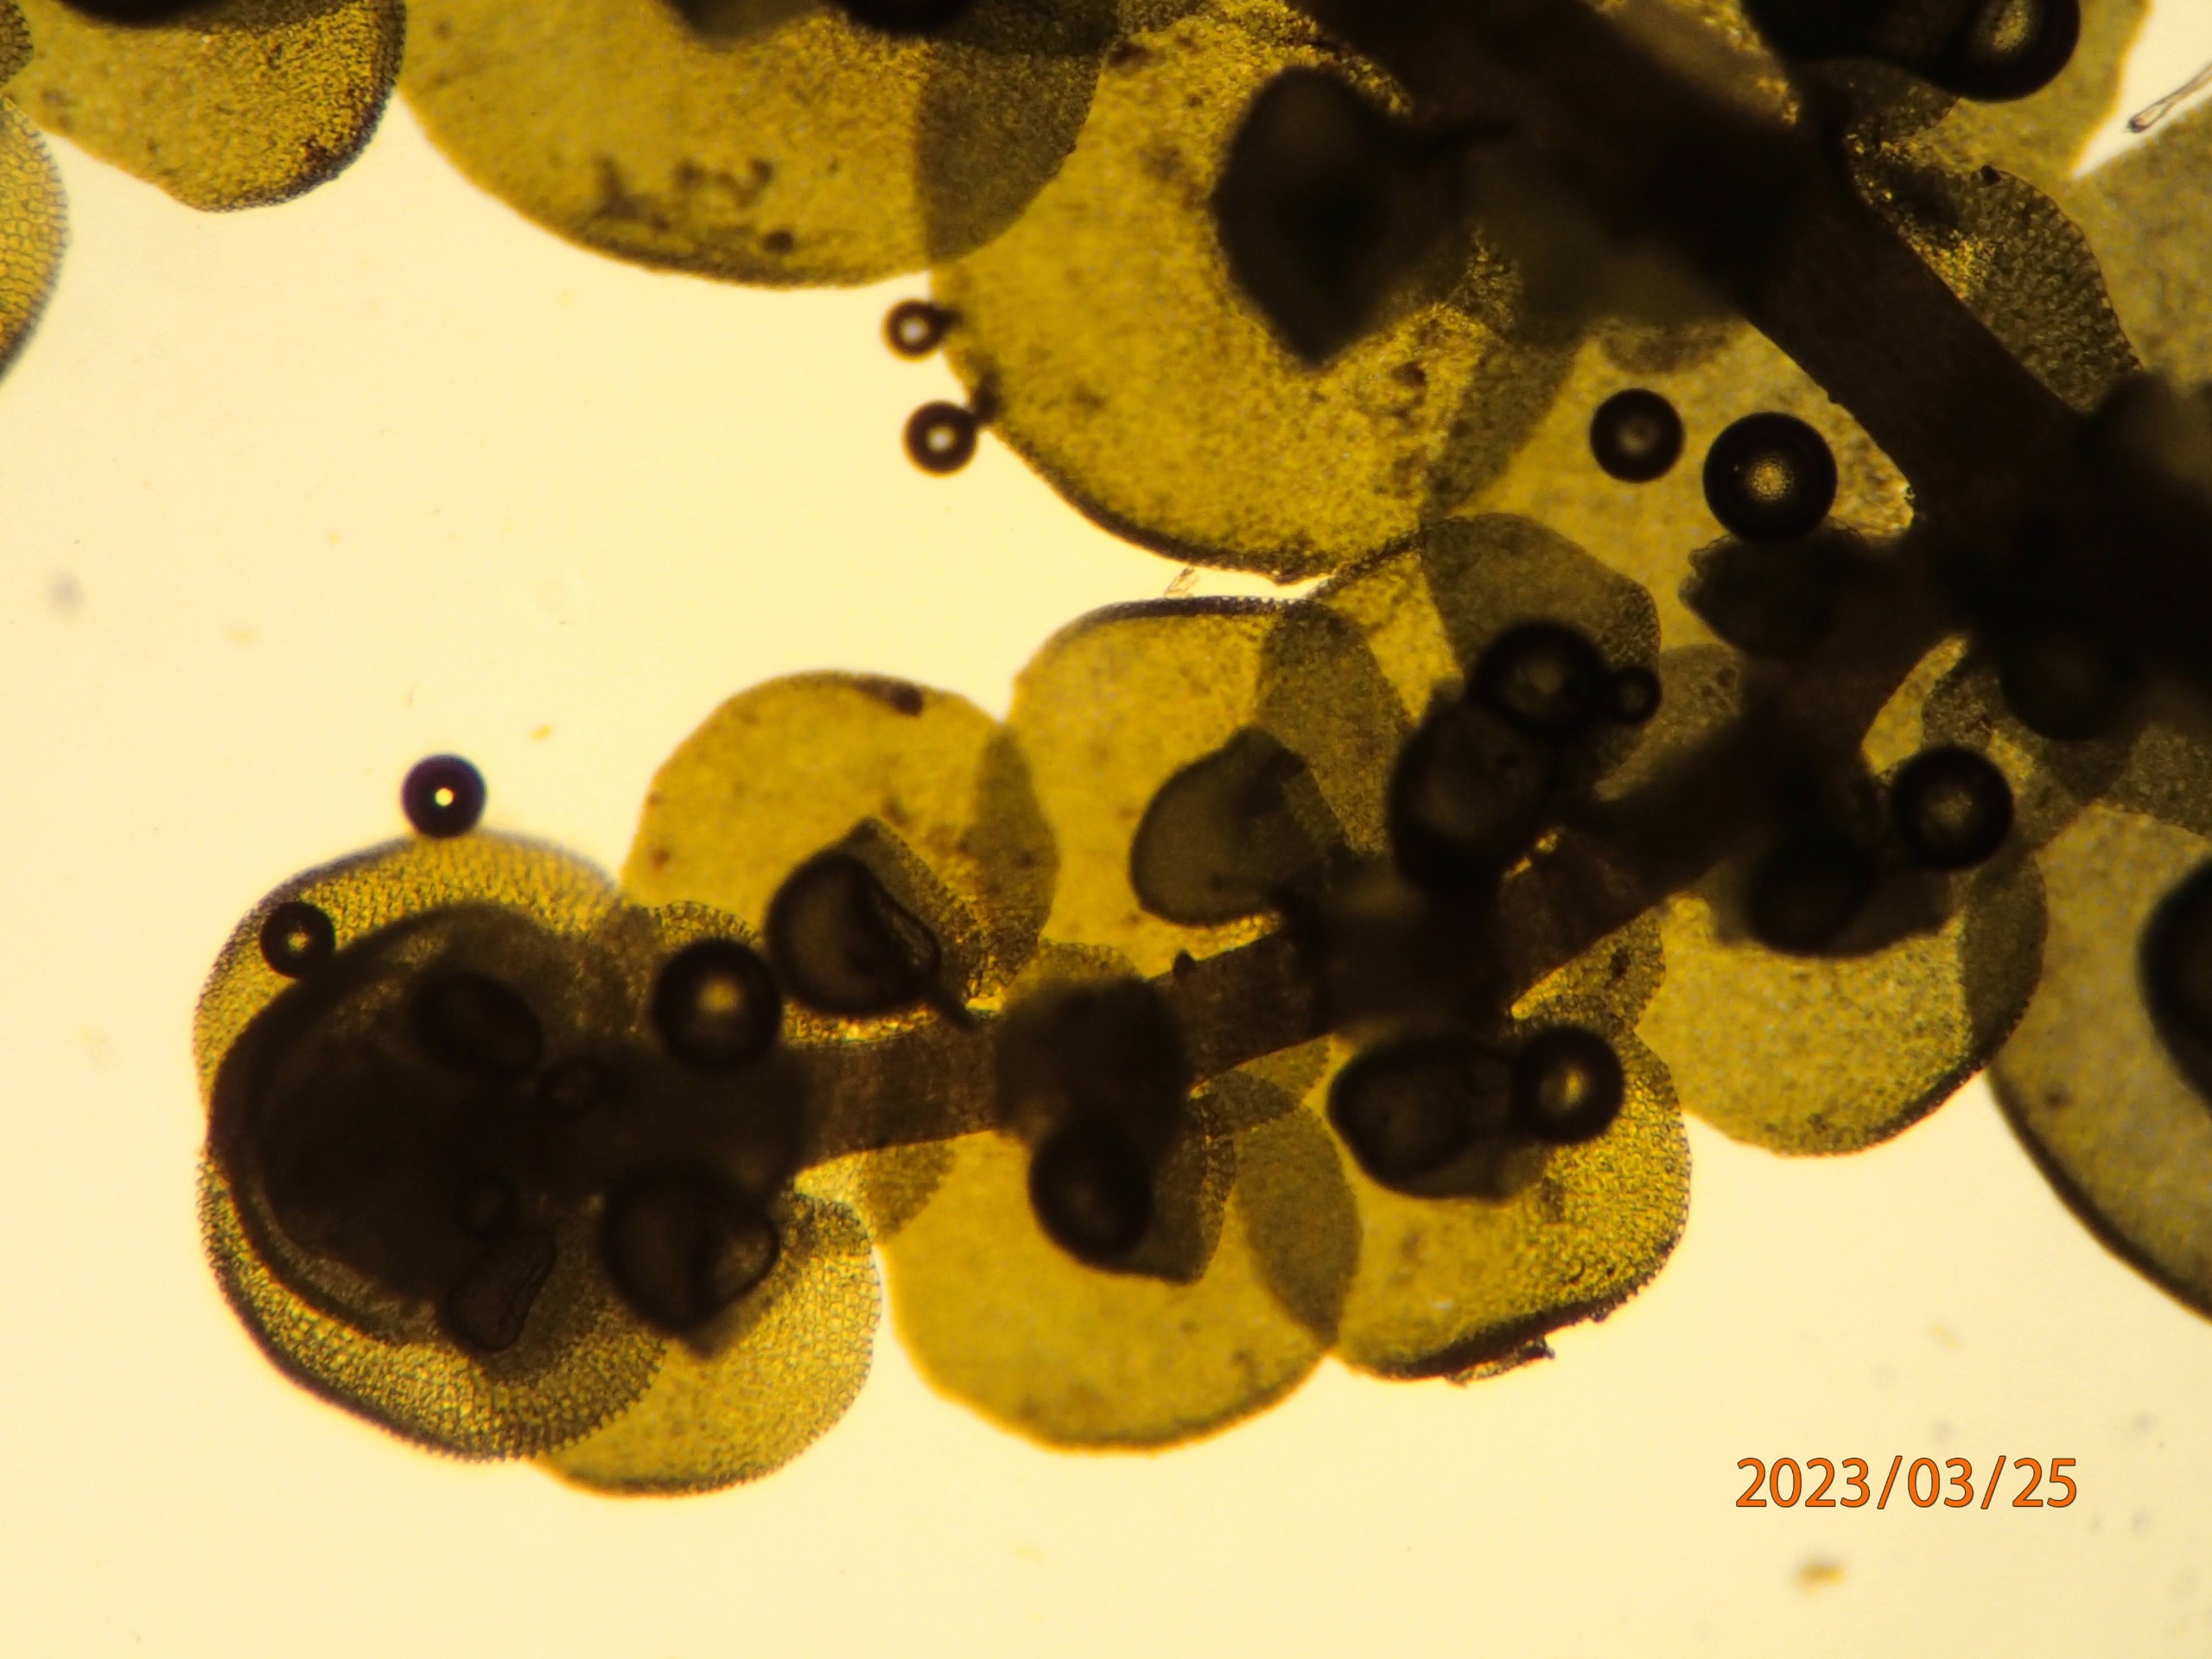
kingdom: Plantae
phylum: Marchantiophyta
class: Jungermanniopsida
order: Porellales
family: Frullaniaceae
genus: Frullania
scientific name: Frullania dilatata
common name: Mat bronzemos
